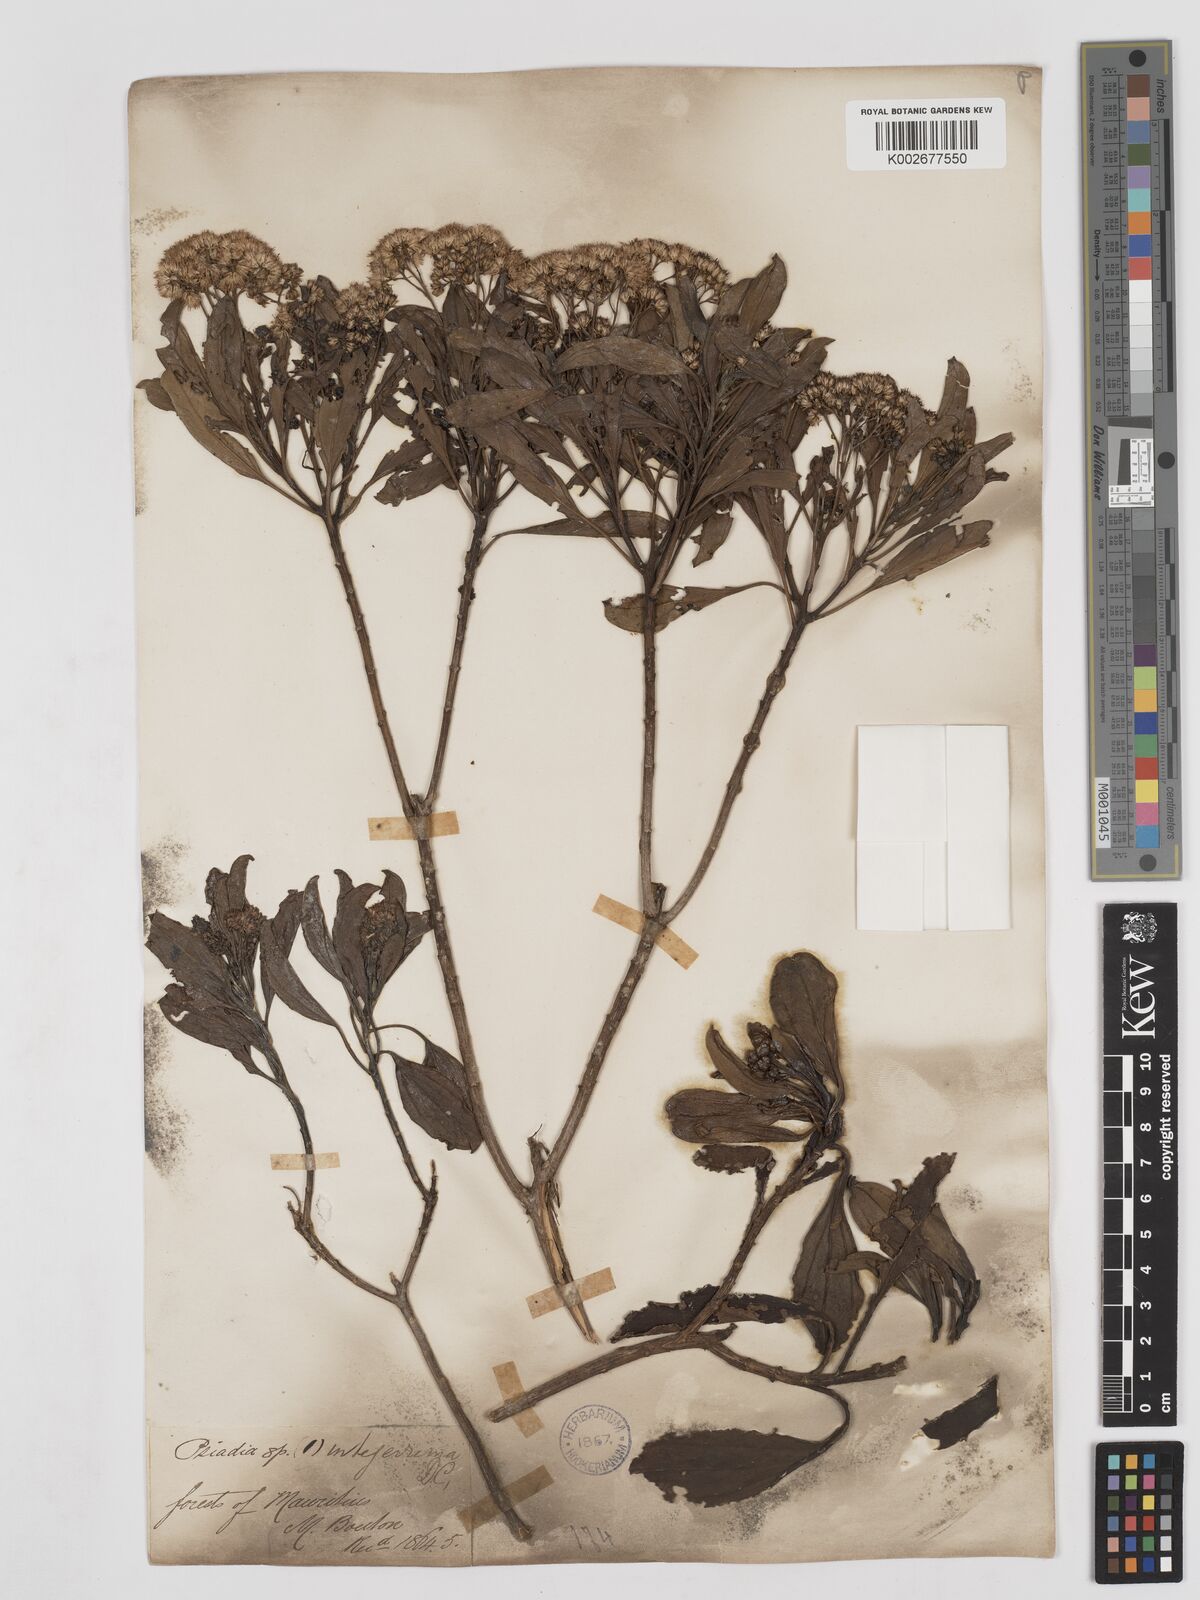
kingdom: Plantae
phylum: Tracheophyta
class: Magnoliopsida
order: Asterales
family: Asteraceae
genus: Psiadia
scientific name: Psiadia viscosa
